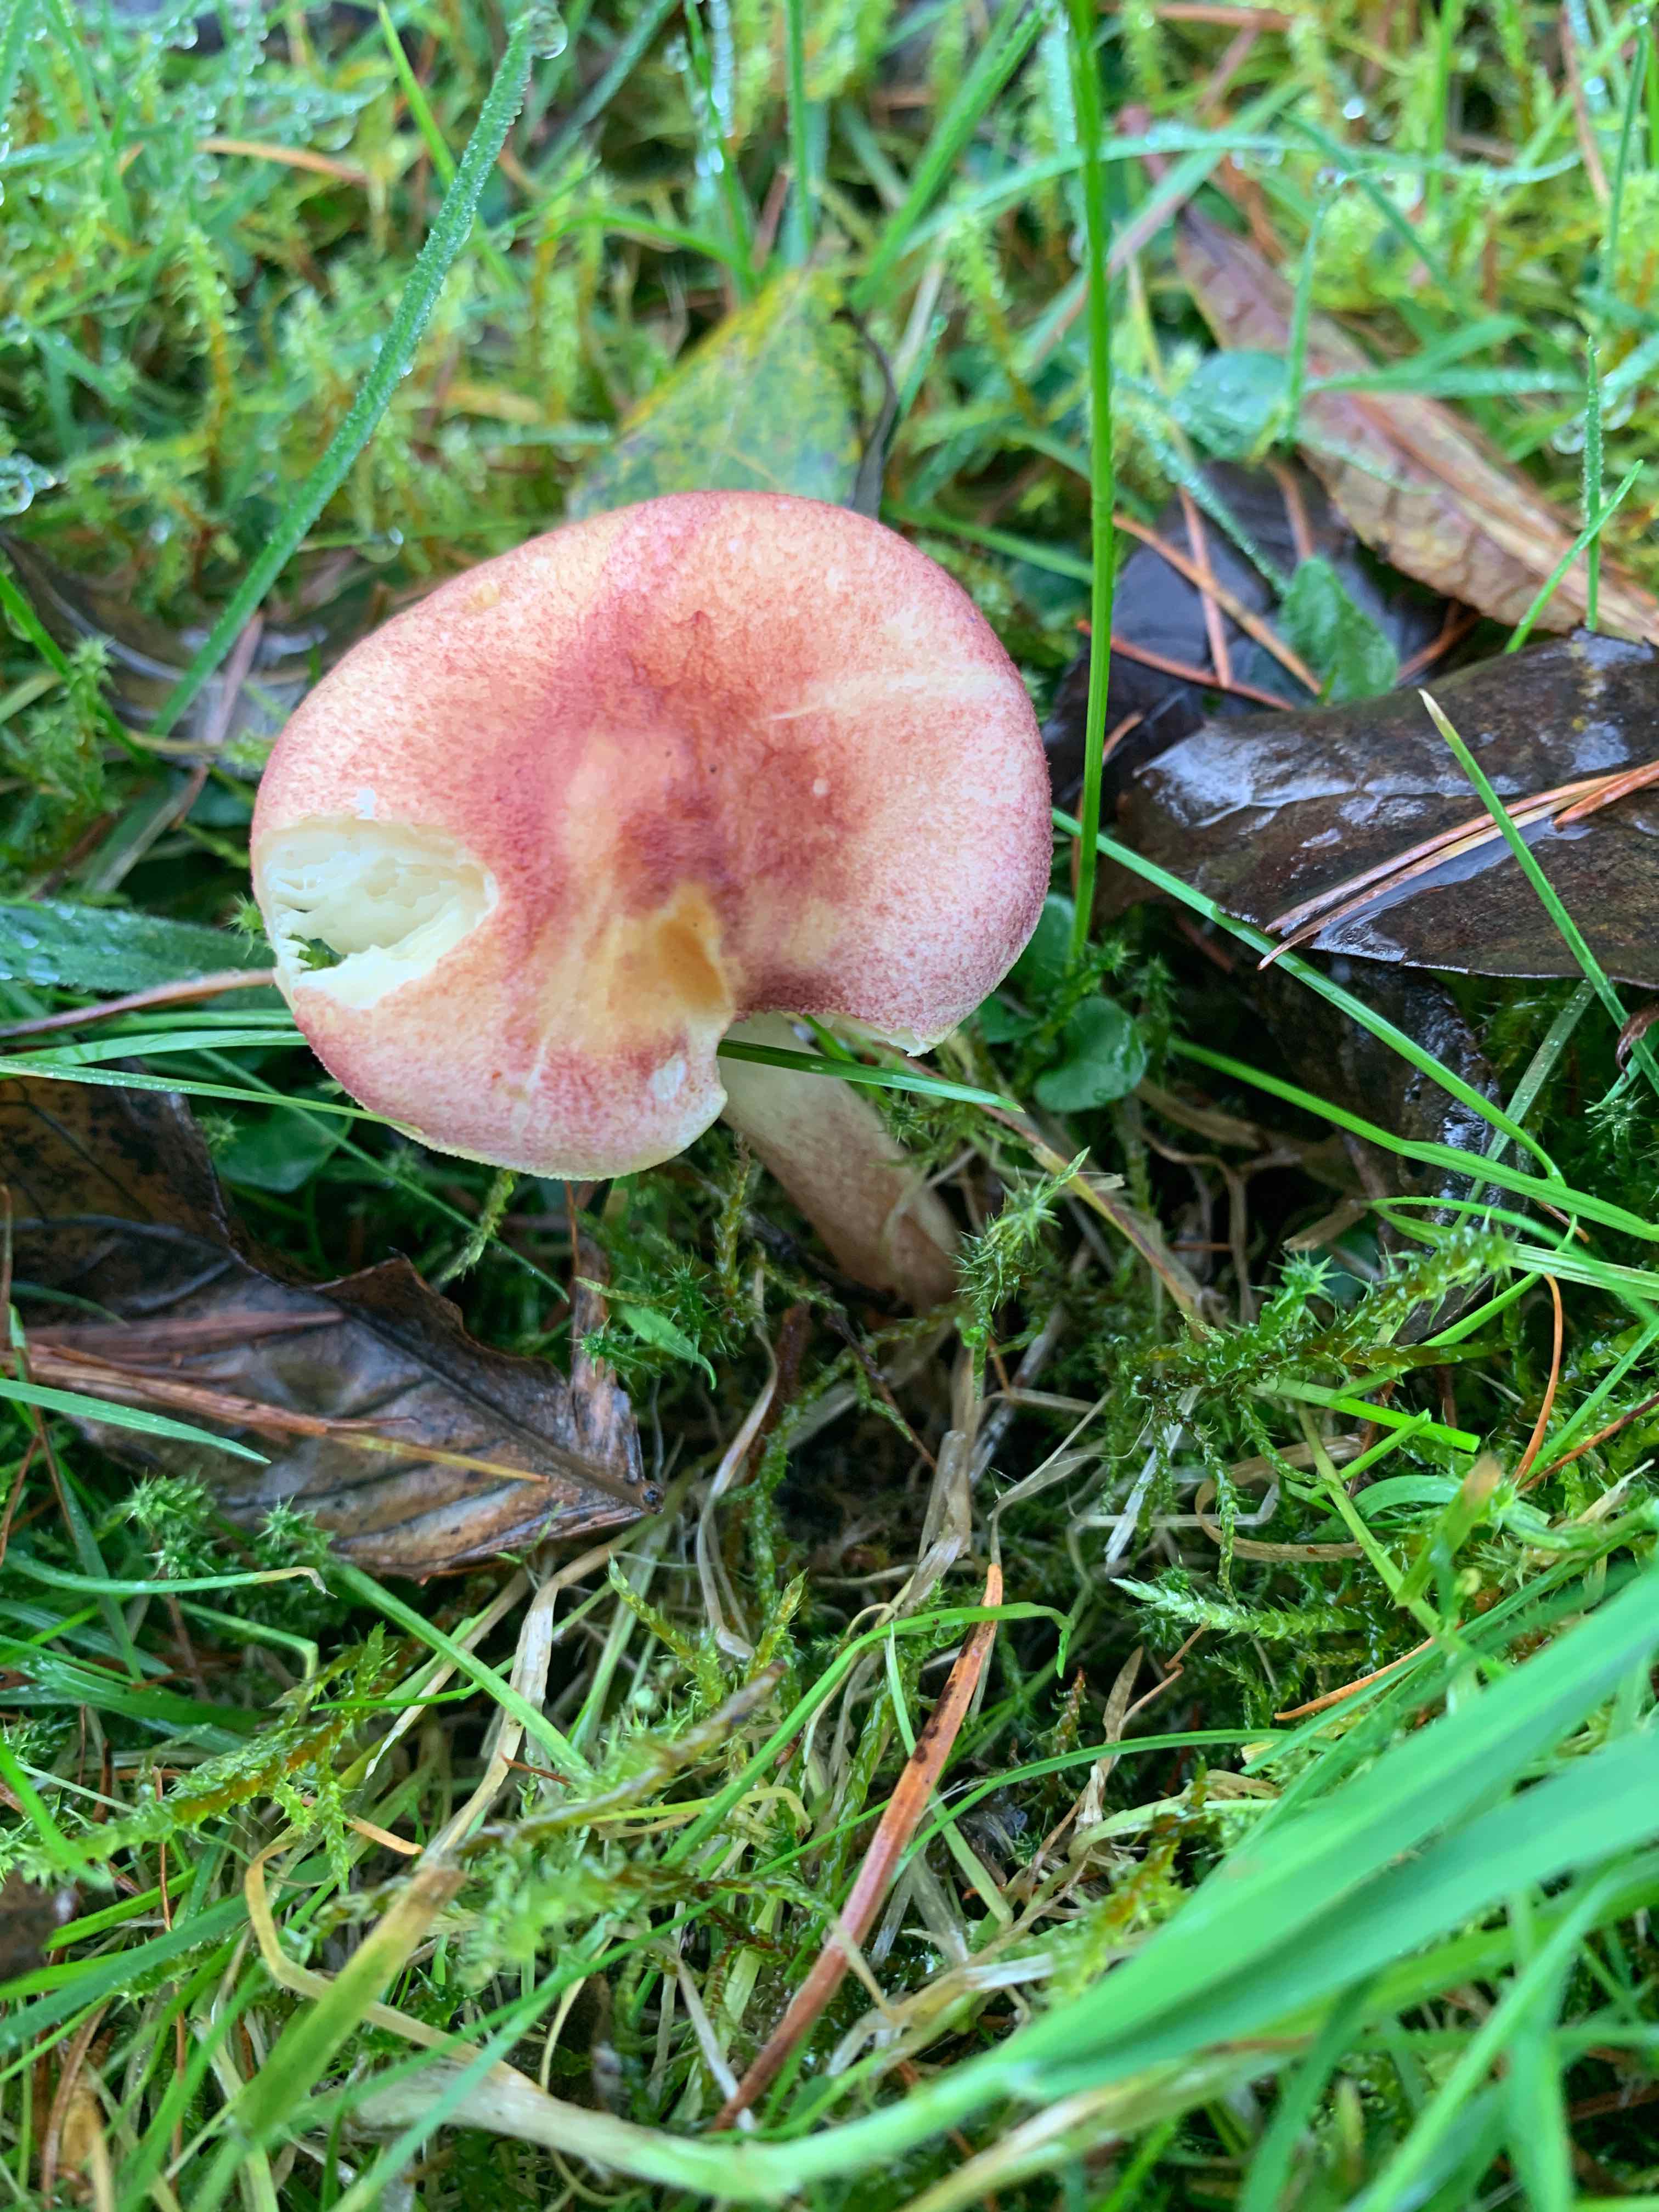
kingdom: Fungi
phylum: Basidiomycota
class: Agaricomycetes
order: Agaricales
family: Tricholomataceae
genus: Tricholomopsis
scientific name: Tricholomopsis rutilans
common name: purpur-væbnerhat
